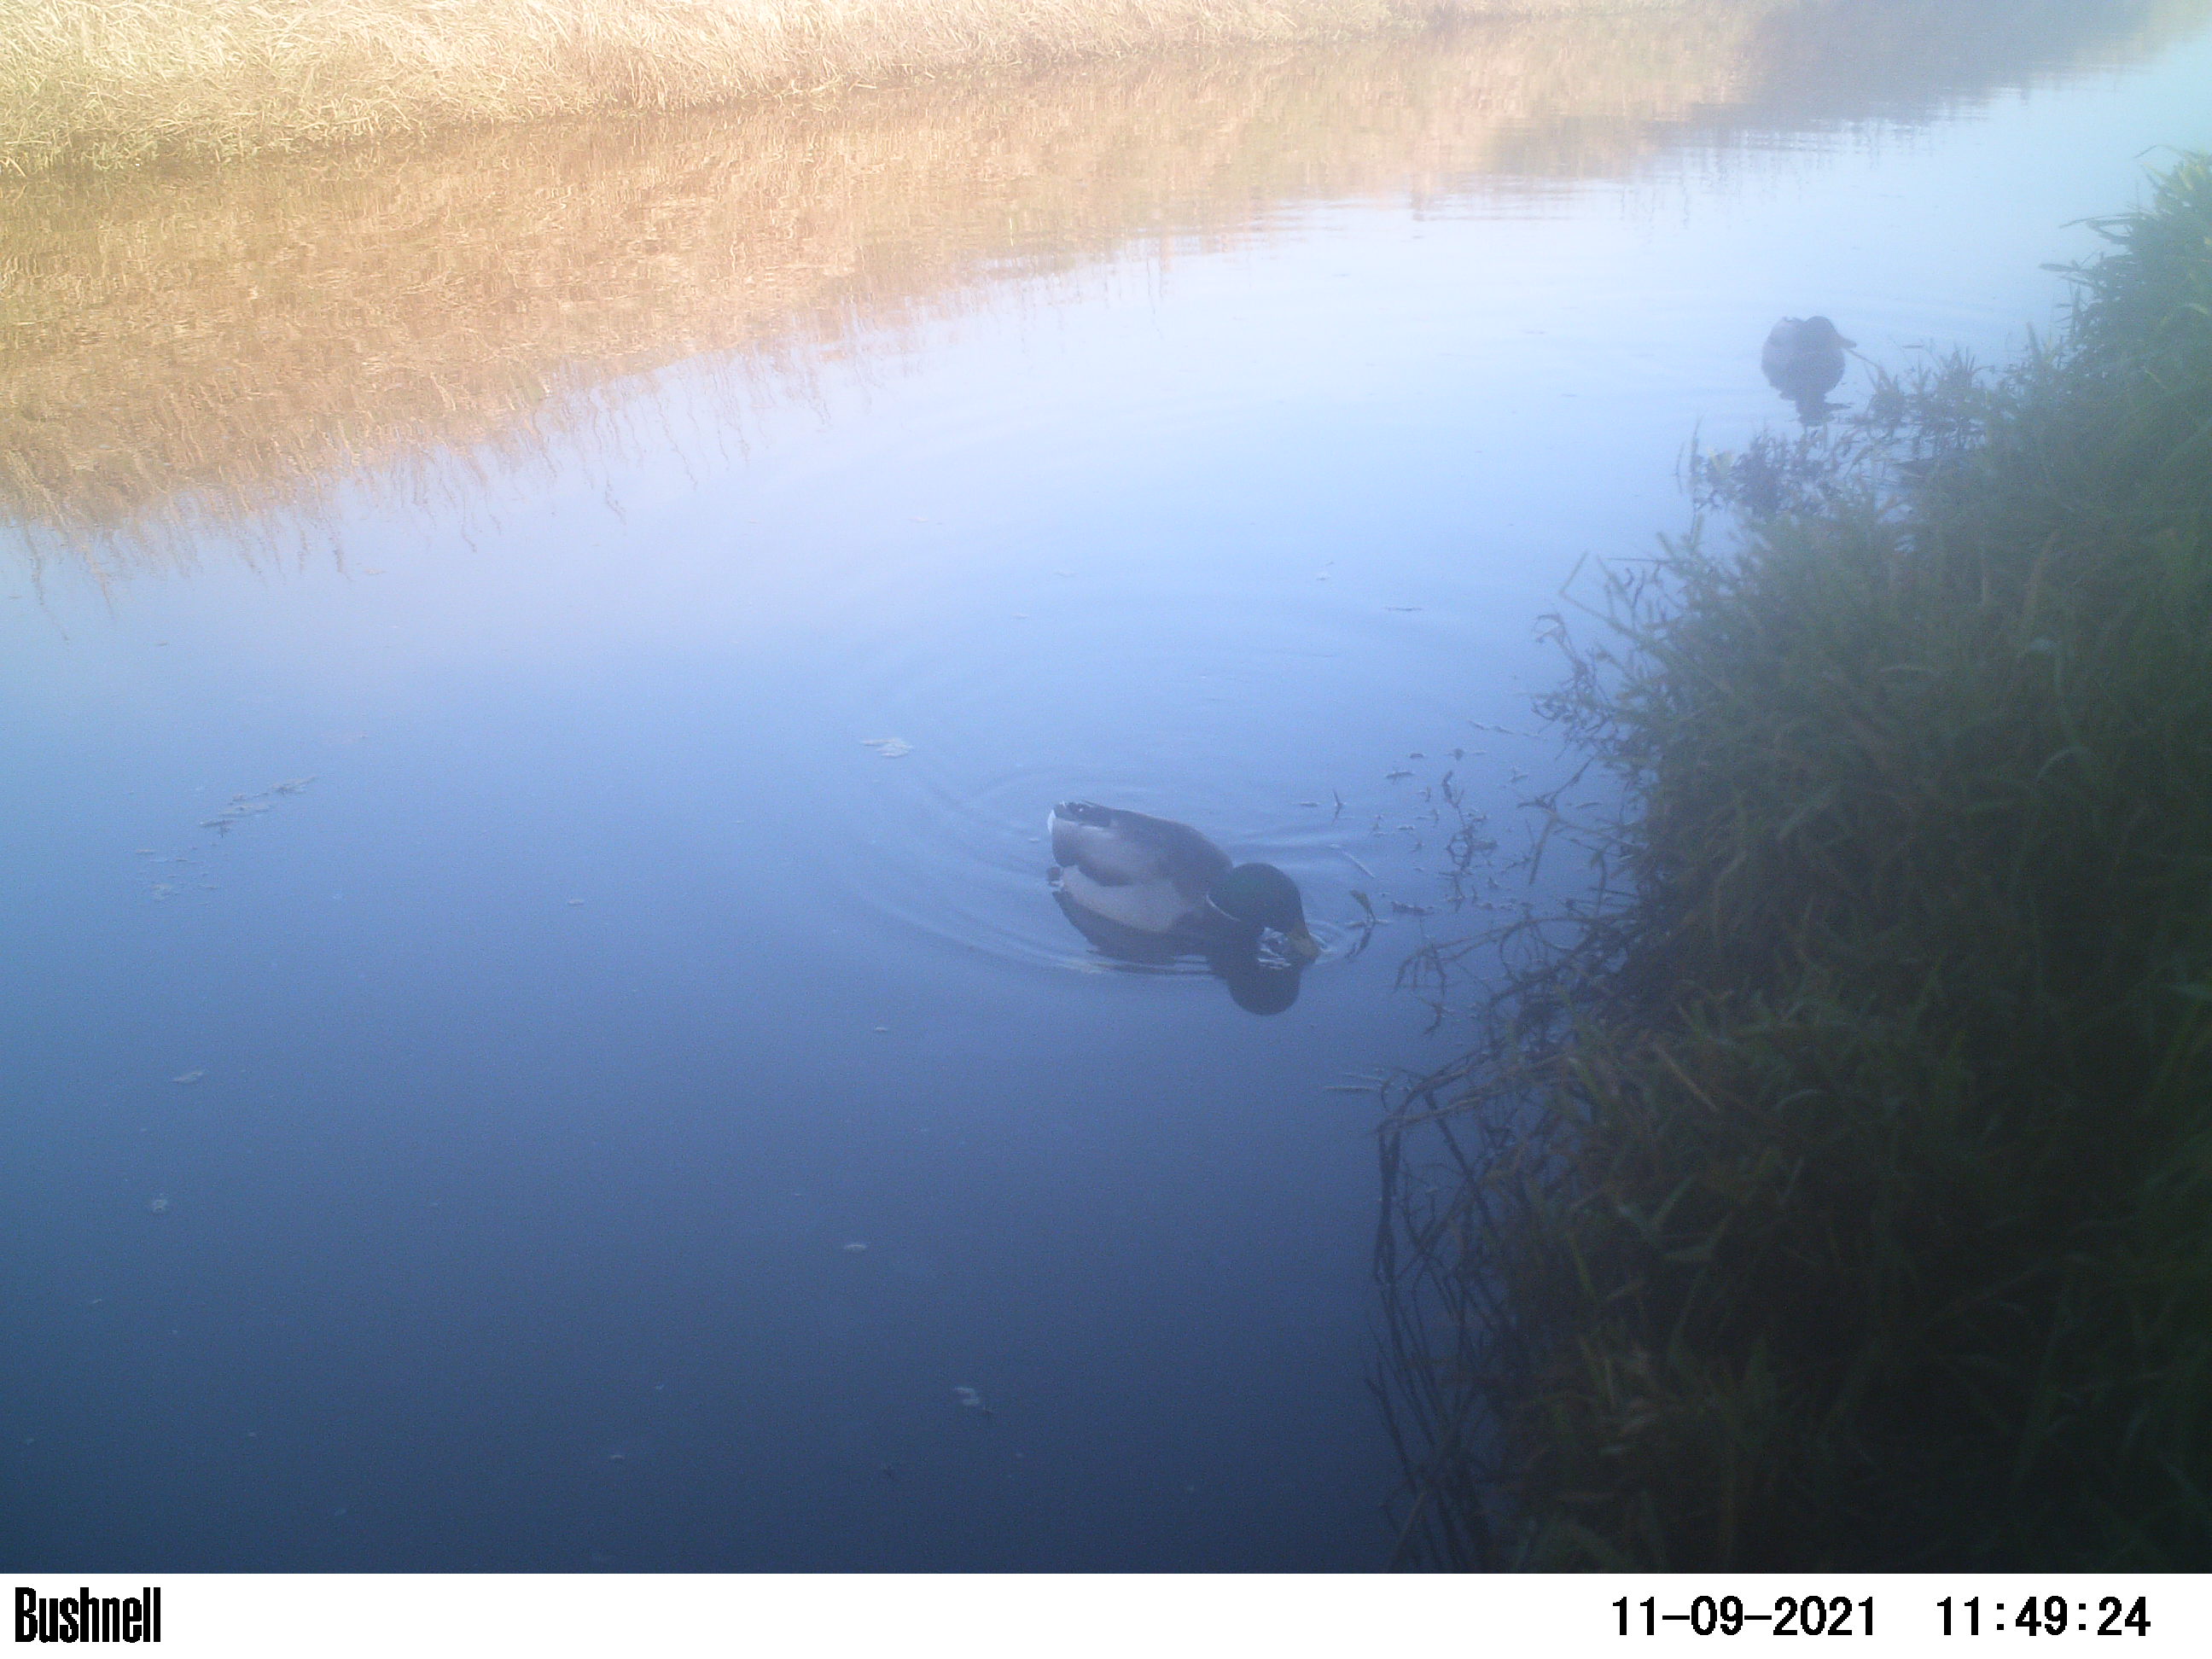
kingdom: Animalia
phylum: Chordata
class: Aves
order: Gruiformes
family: Rallidae
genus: Gallinula
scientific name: Gallinula chloropus
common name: Common moorhen
